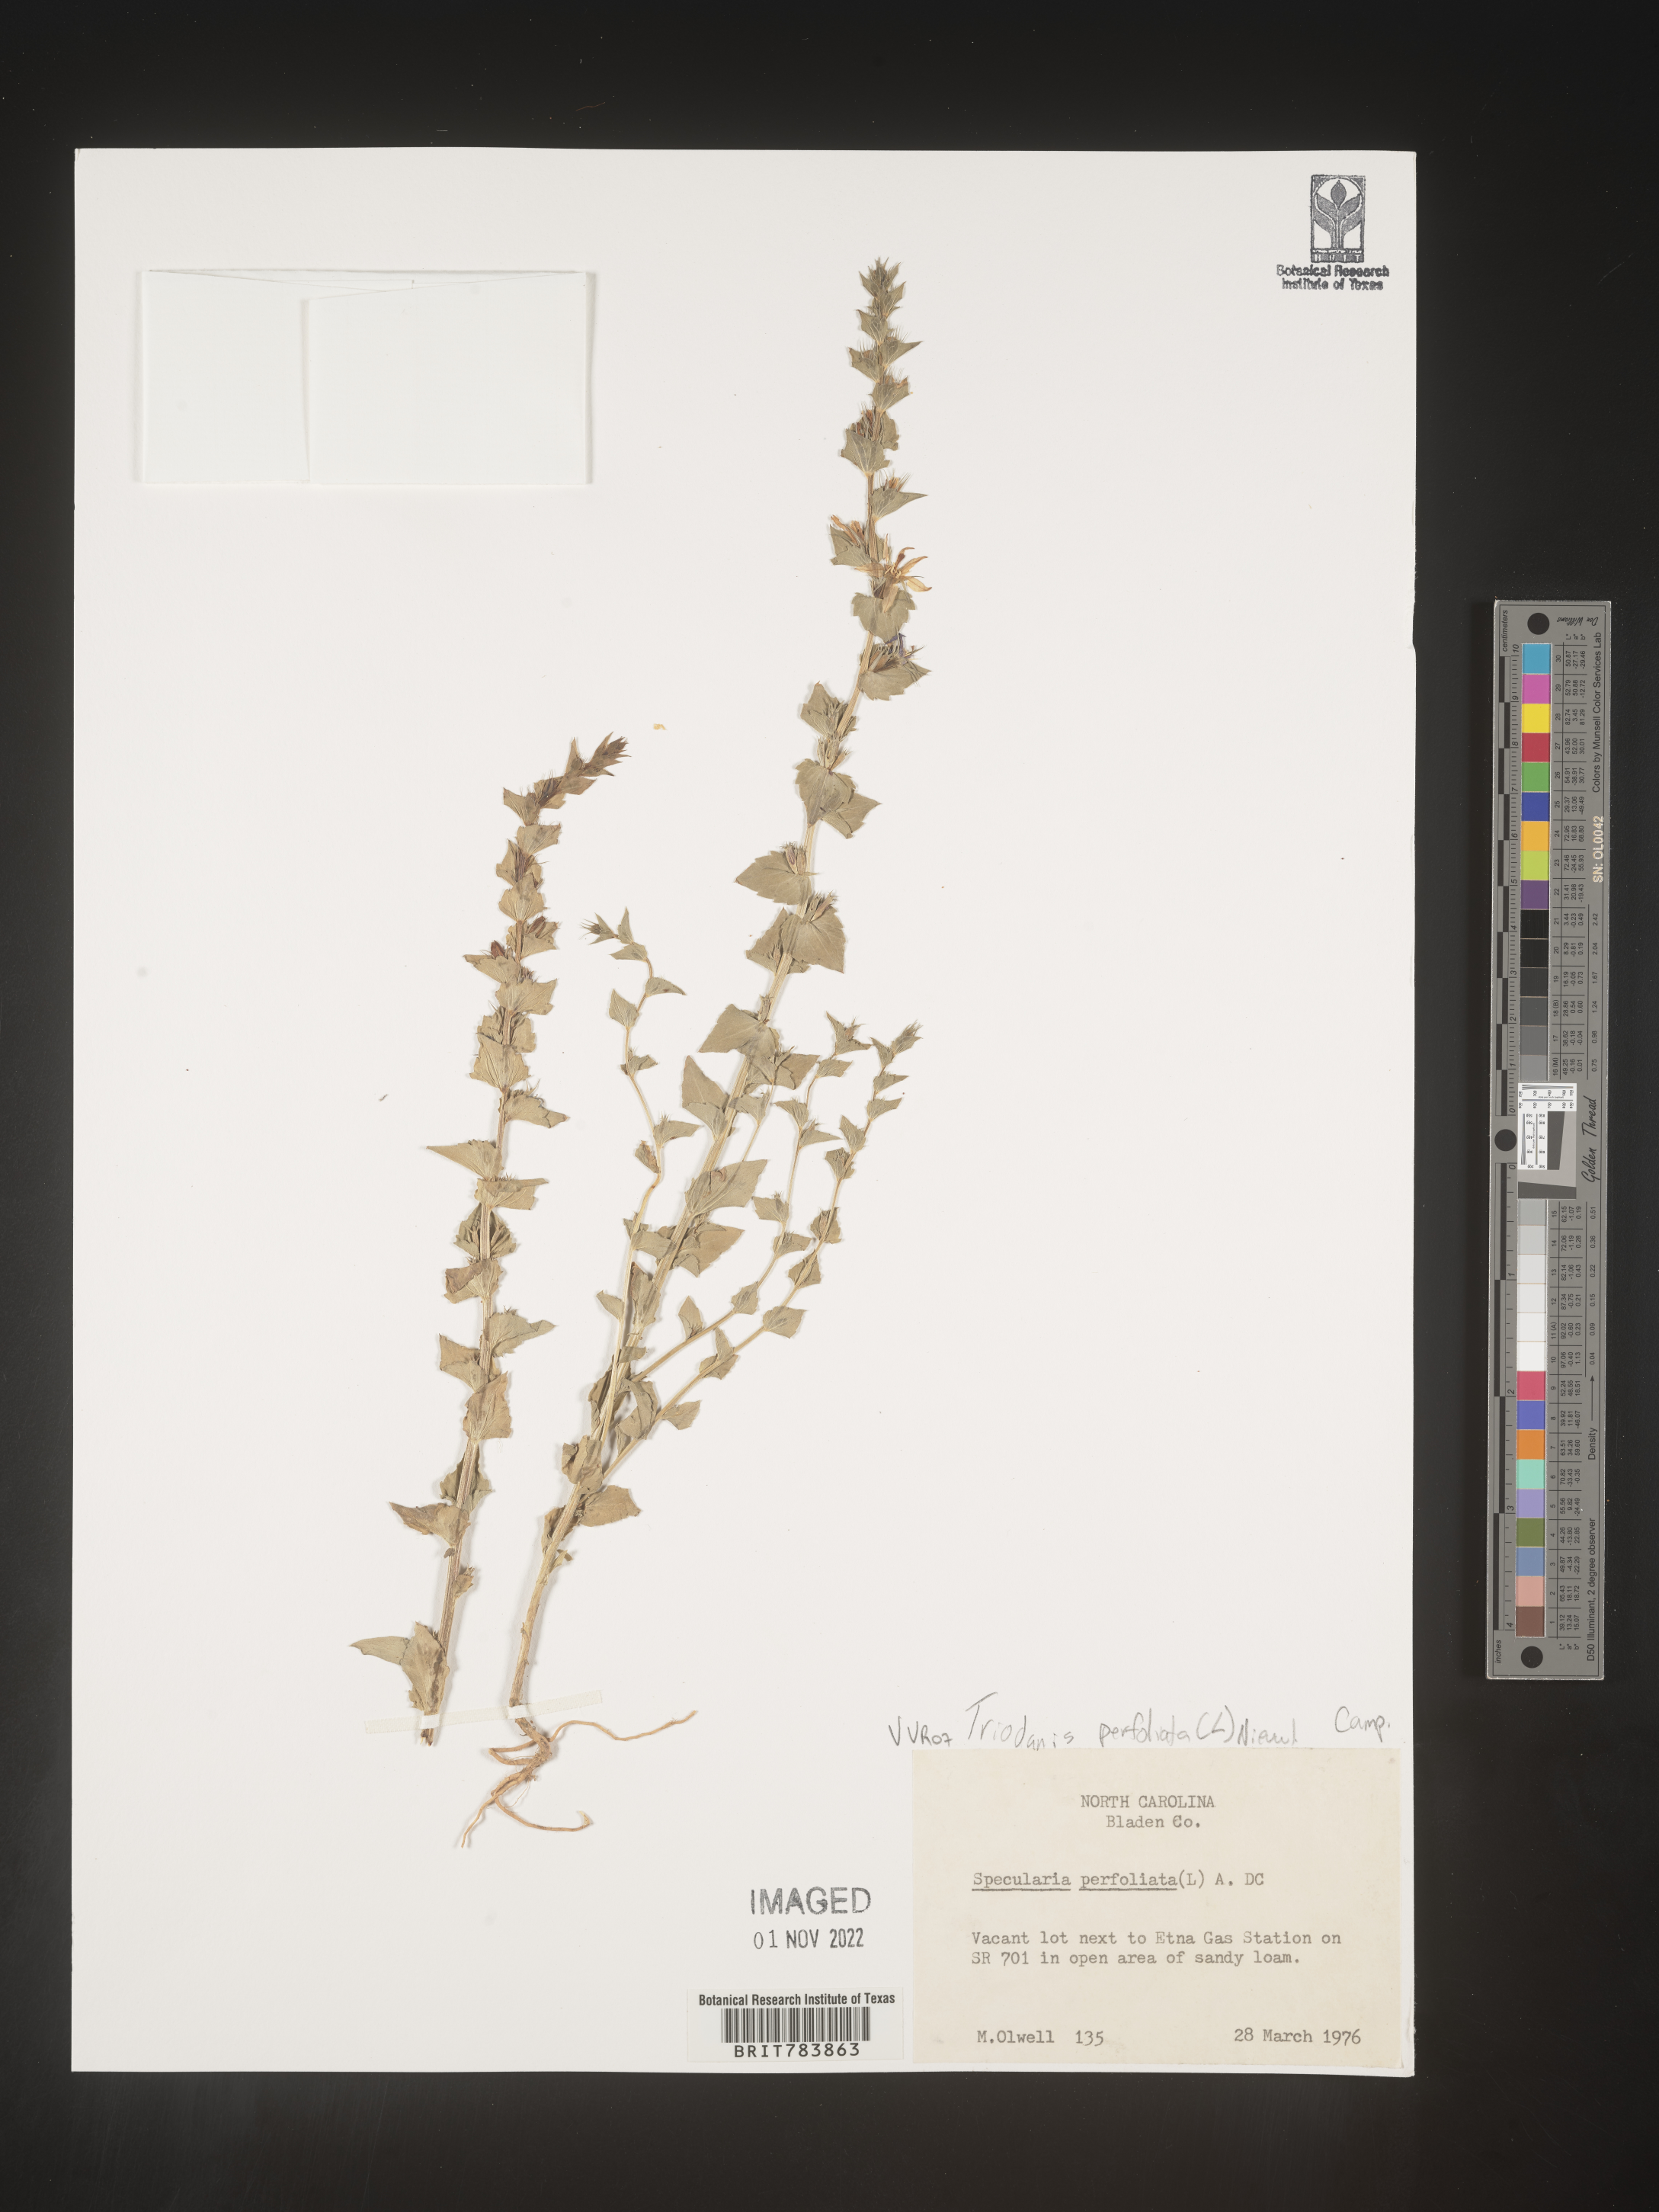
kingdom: Plantae
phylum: Tracheophyta
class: Magnoliopsida
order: Asterales
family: Campanulaceae
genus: Triodanis
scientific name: Triodanis perfoliata
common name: Clasping venus' looking-glass
